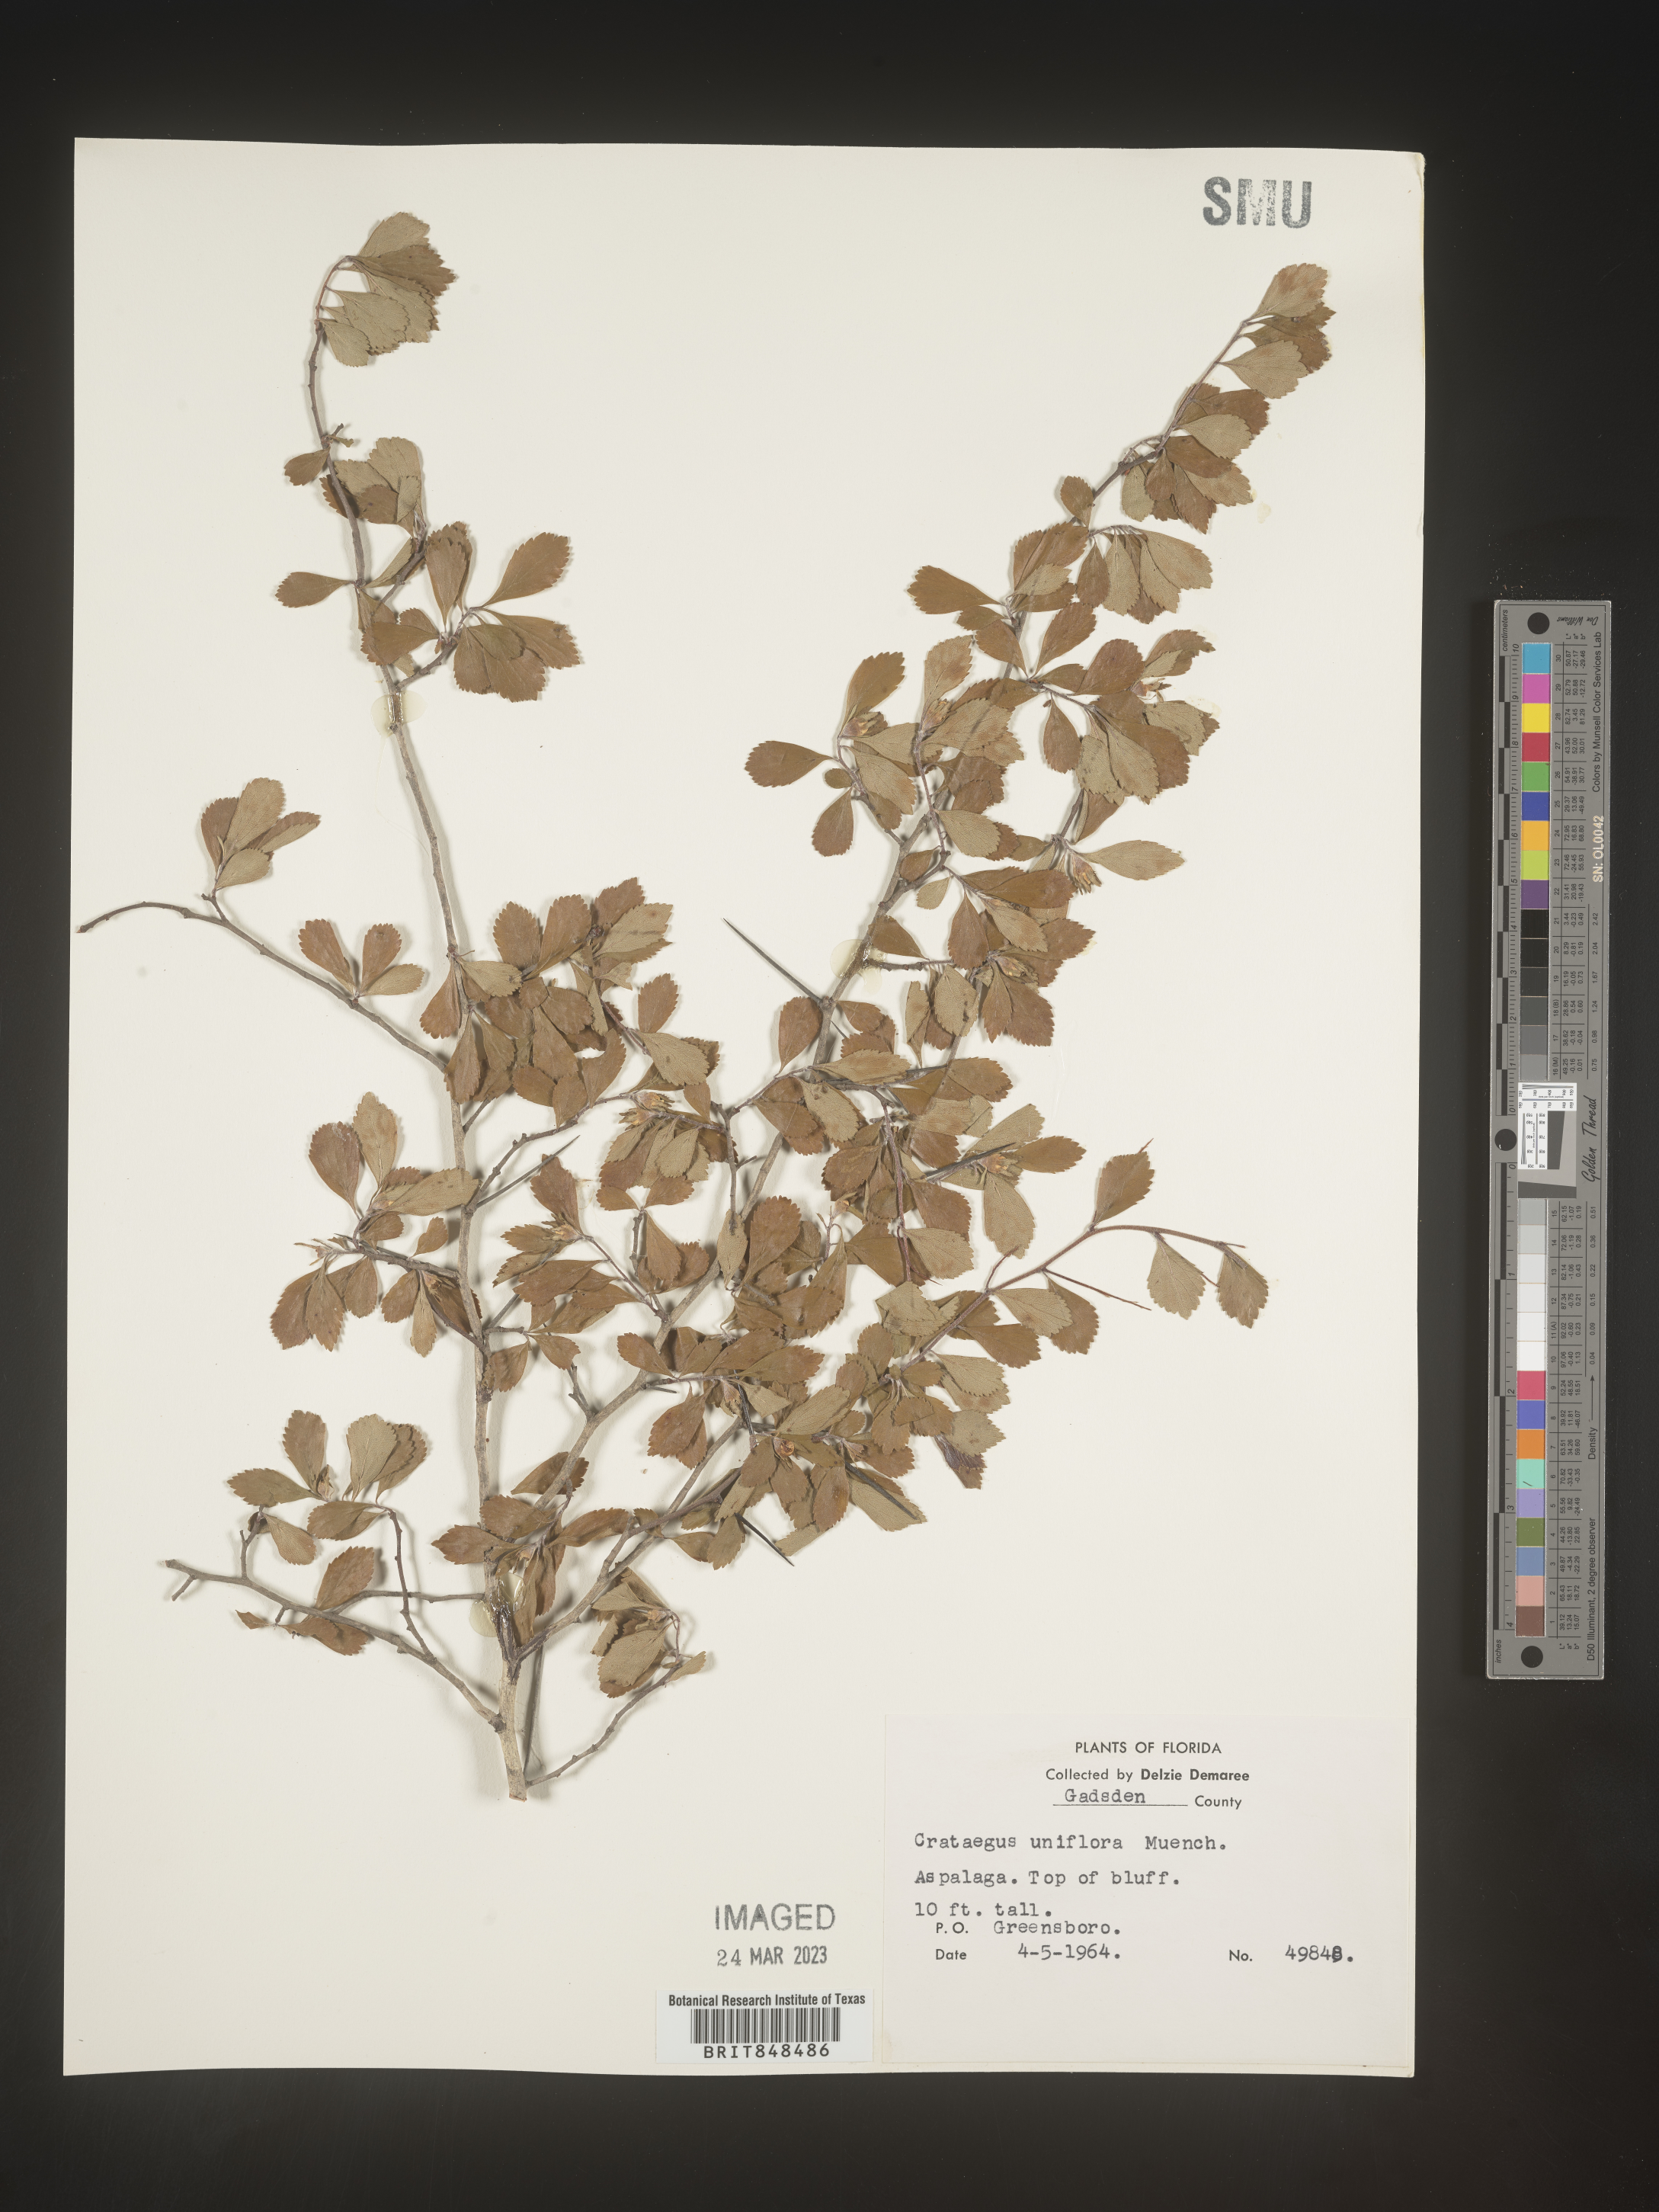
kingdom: Plantae
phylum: Tracheophyta
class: Magnoliopsida
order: Rosales
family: Rosaceae
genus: Crataegus
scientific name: Crataegus uniflora
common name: One-flower hawthorn
